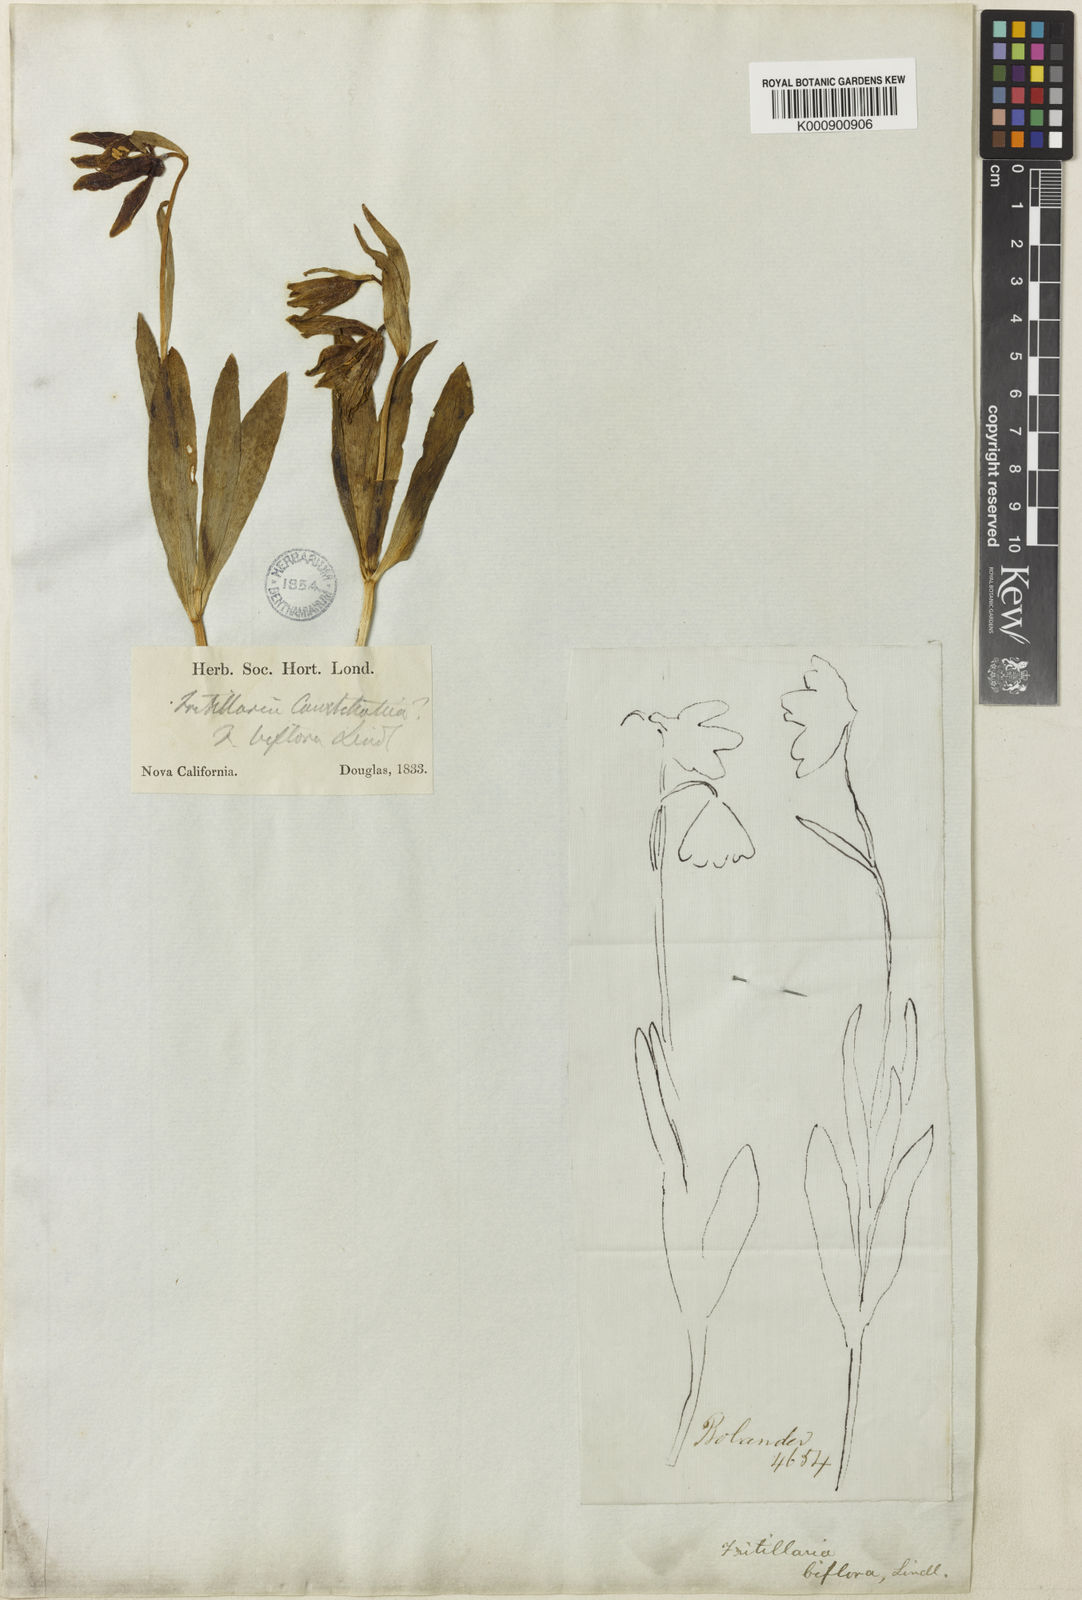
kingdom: Plantae
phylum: Tracheophyta
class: Liliopsida
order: Liliales
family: Liliaceae
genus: Fritillaria
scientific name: Fritillaria biflora
